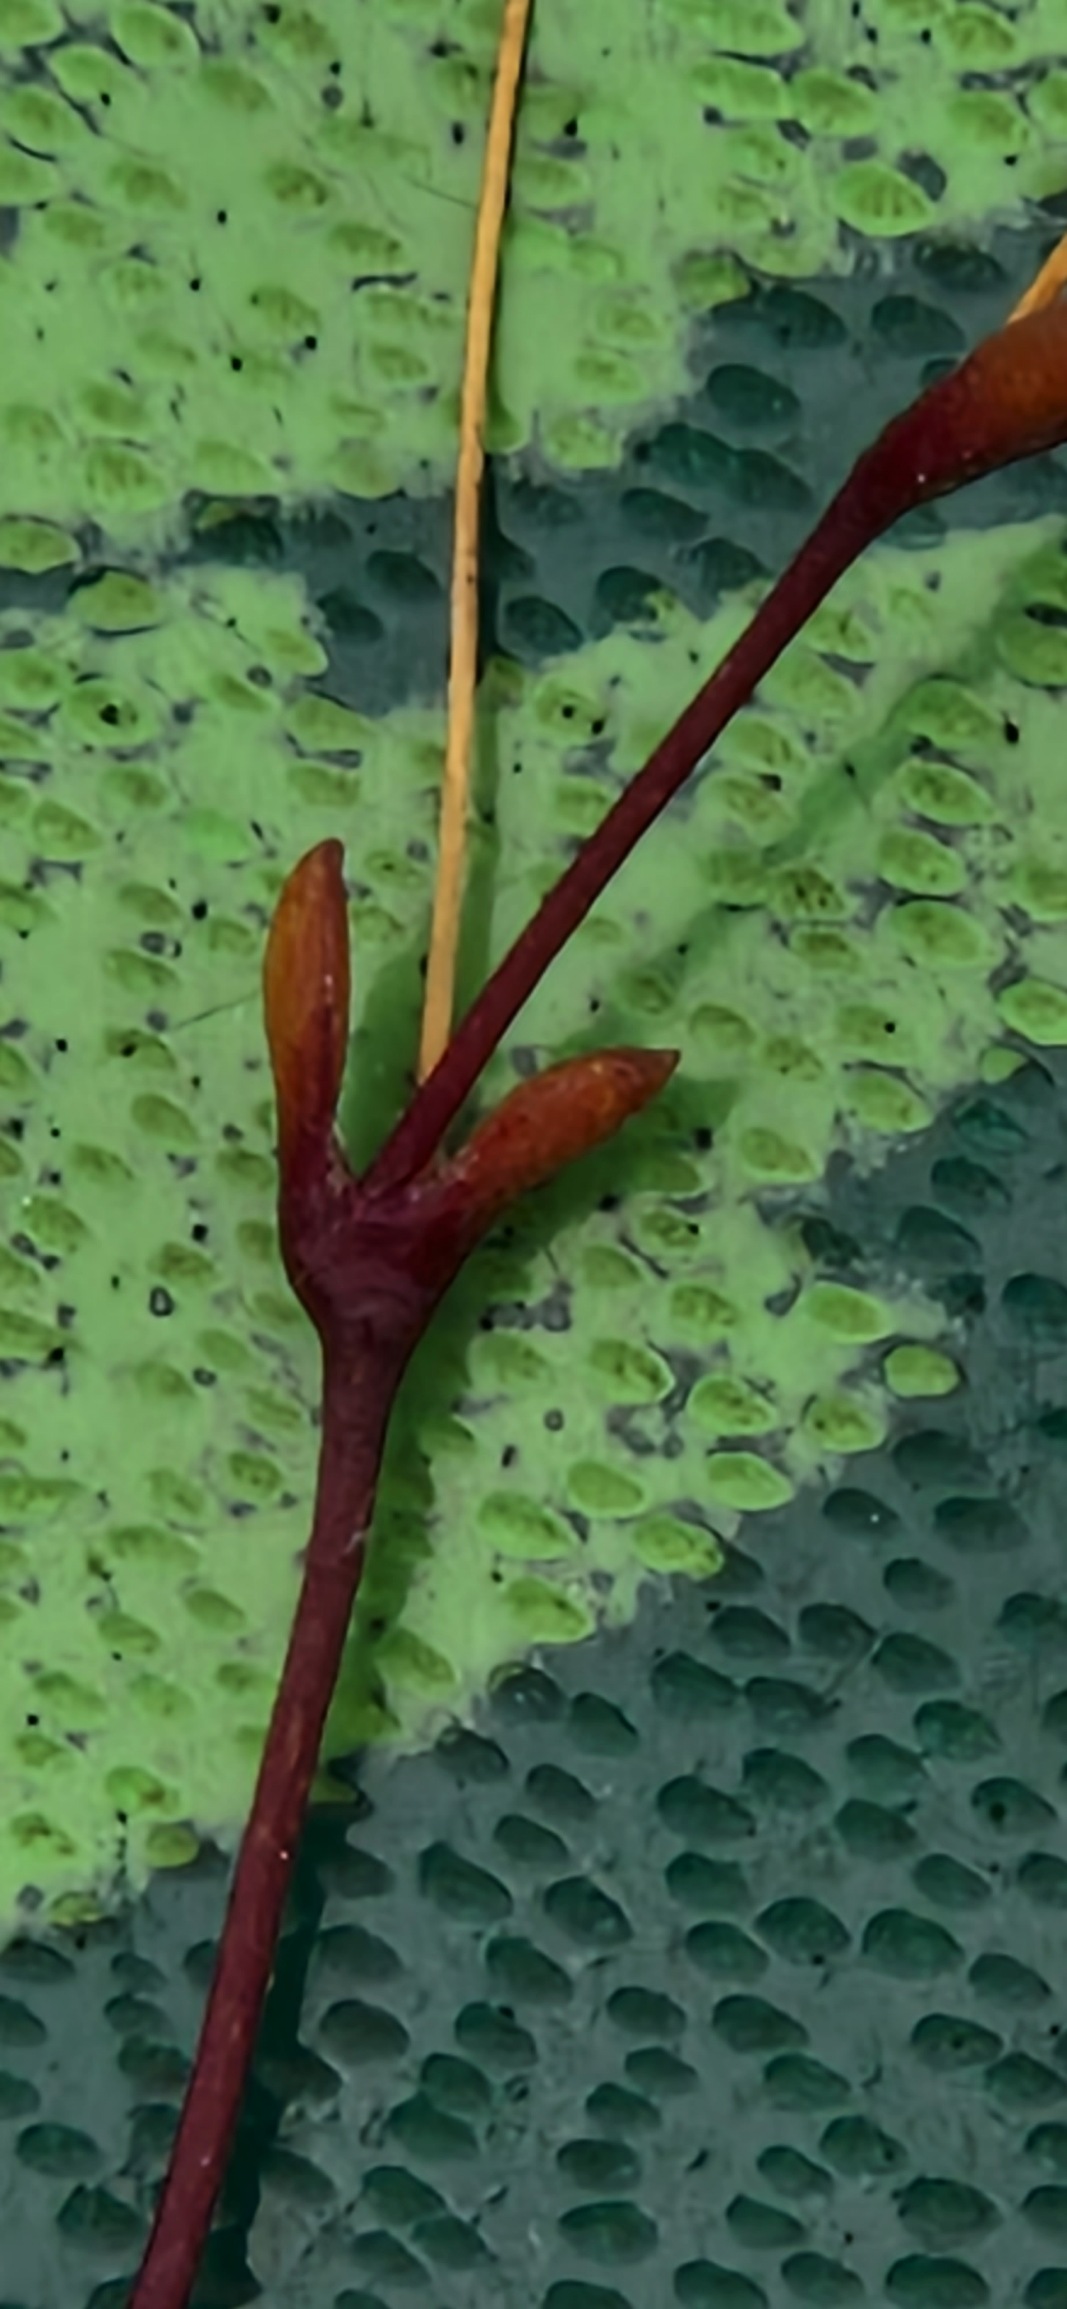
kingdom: Plantae
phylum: Tracheophyta
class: Magnoliopsida
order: Caryophyllales
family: Caryophyllaceae
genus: Sagina
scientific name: Sagina maritima
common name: Strand-firling
